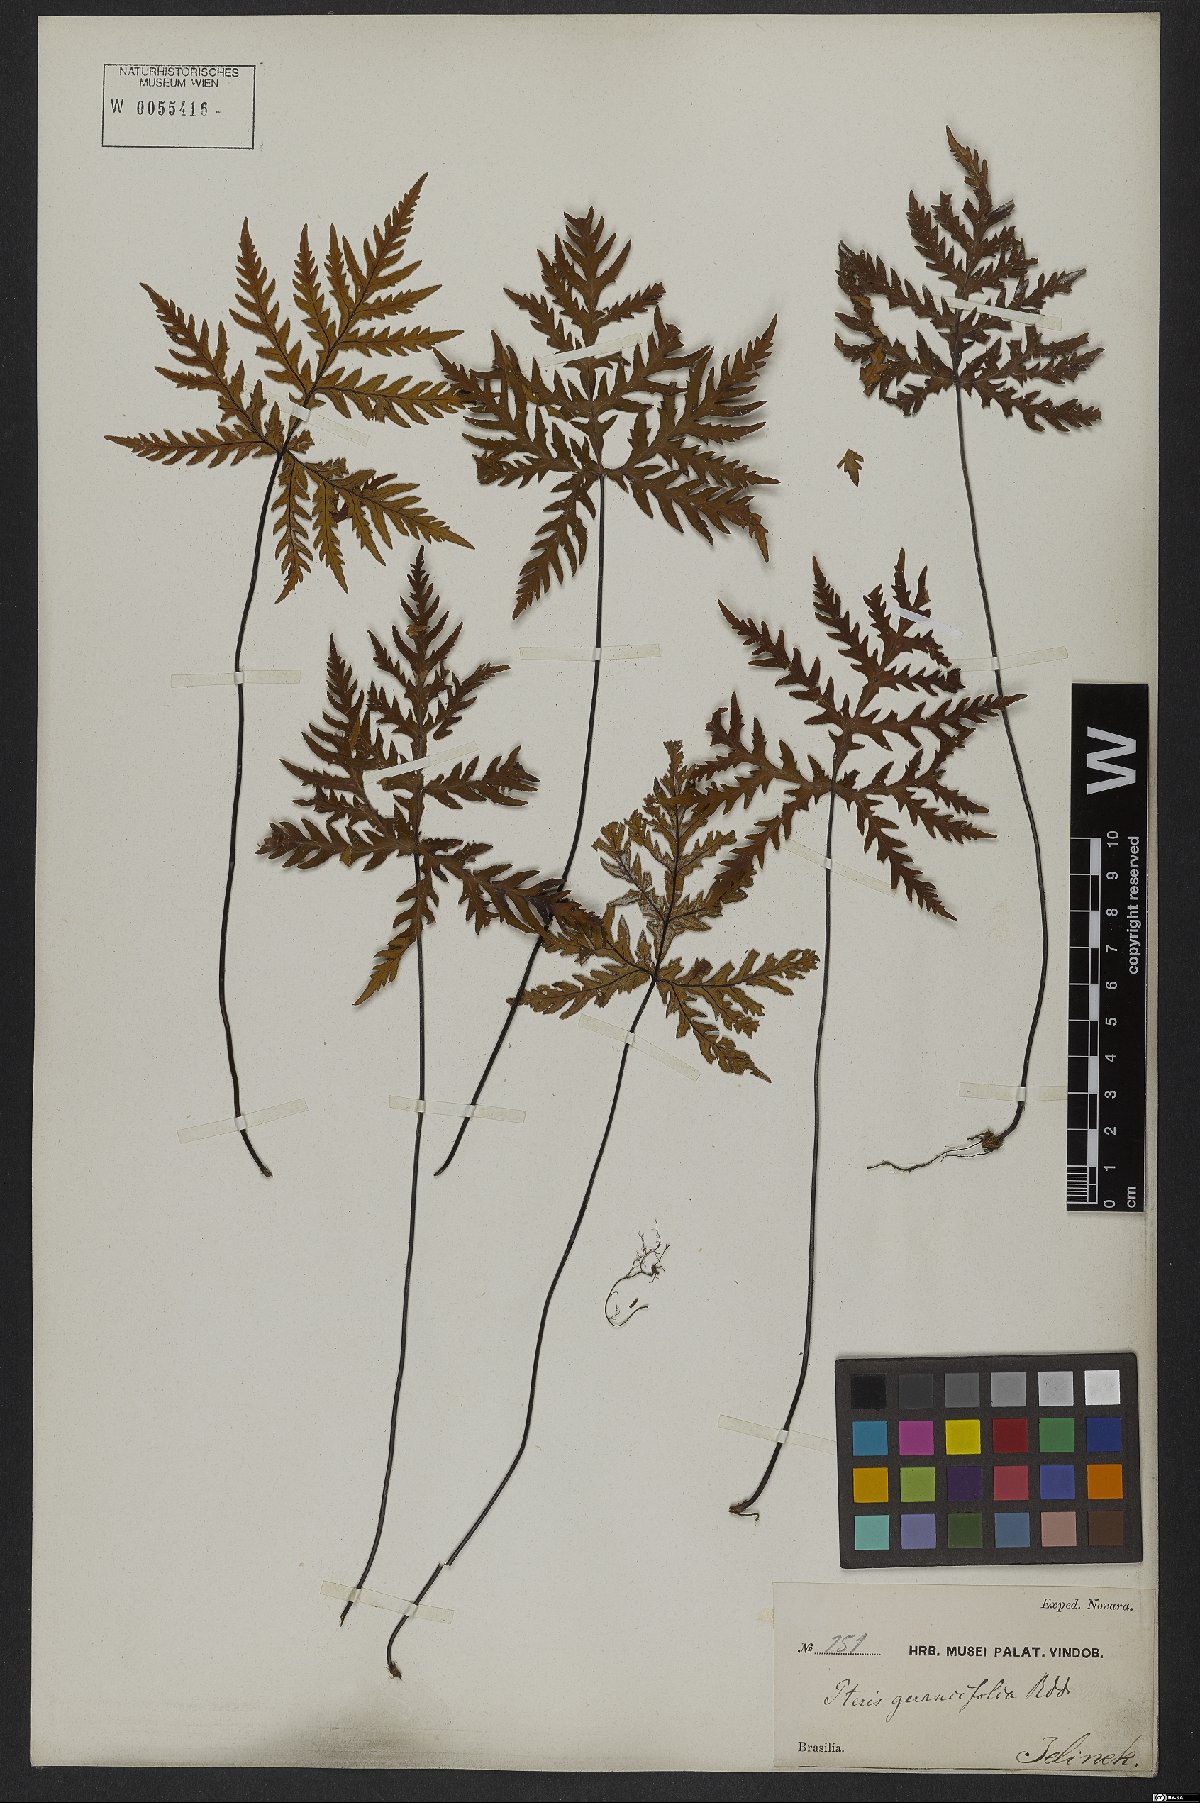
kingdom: Plantae
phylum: Tracheophyta
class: Polypodiopsida
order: Polypodiales
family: Pteridaceae
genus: Doryopteris
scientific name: Doryopteris concolor
